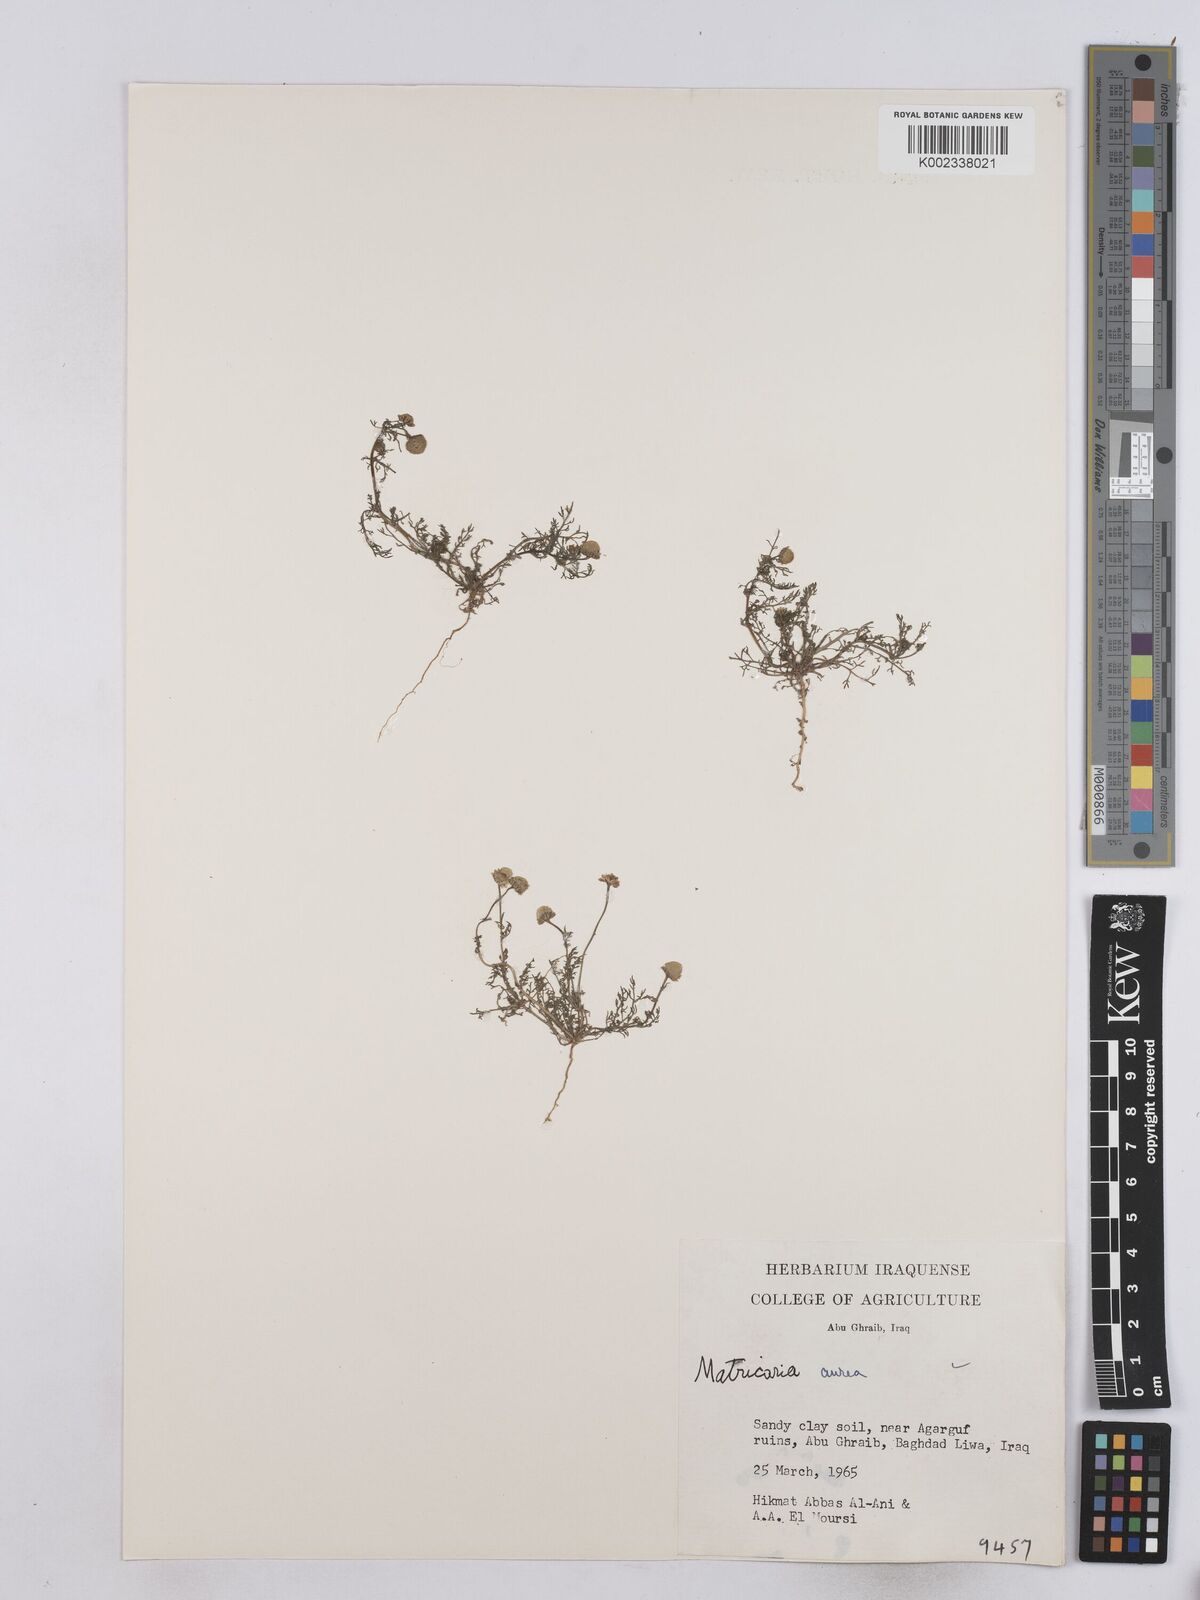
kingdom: Plantae
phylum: Tracheophyta
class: Magnoliopsida
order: Asterales
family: Asteraceae
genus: Matricaria
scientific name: Matricaria aurea
